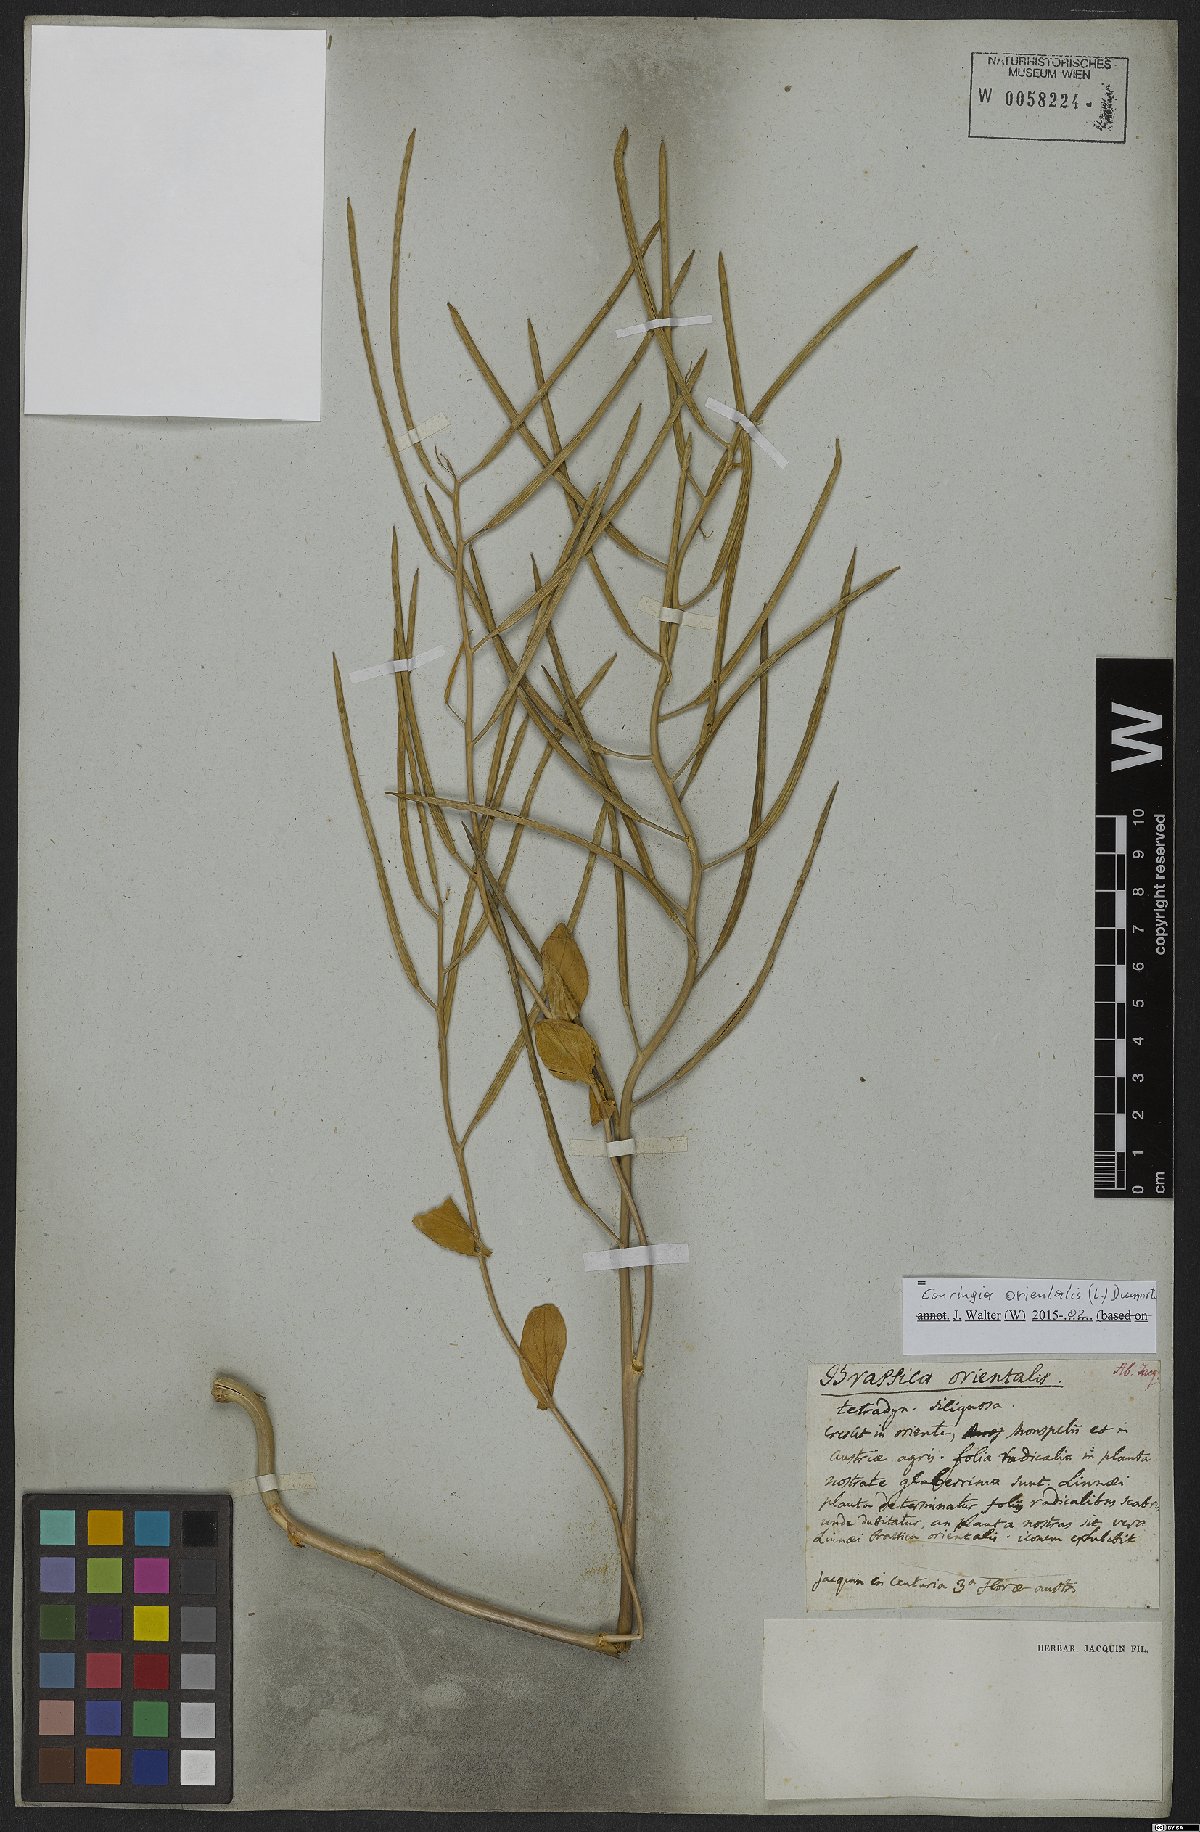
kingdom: Plantae
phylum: Tracheophyta
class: Magnoliopsida
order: Brassicales
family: Brassicaceae
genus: Conringia
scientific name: Conringia orientalis
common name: Hare's ear mustard
